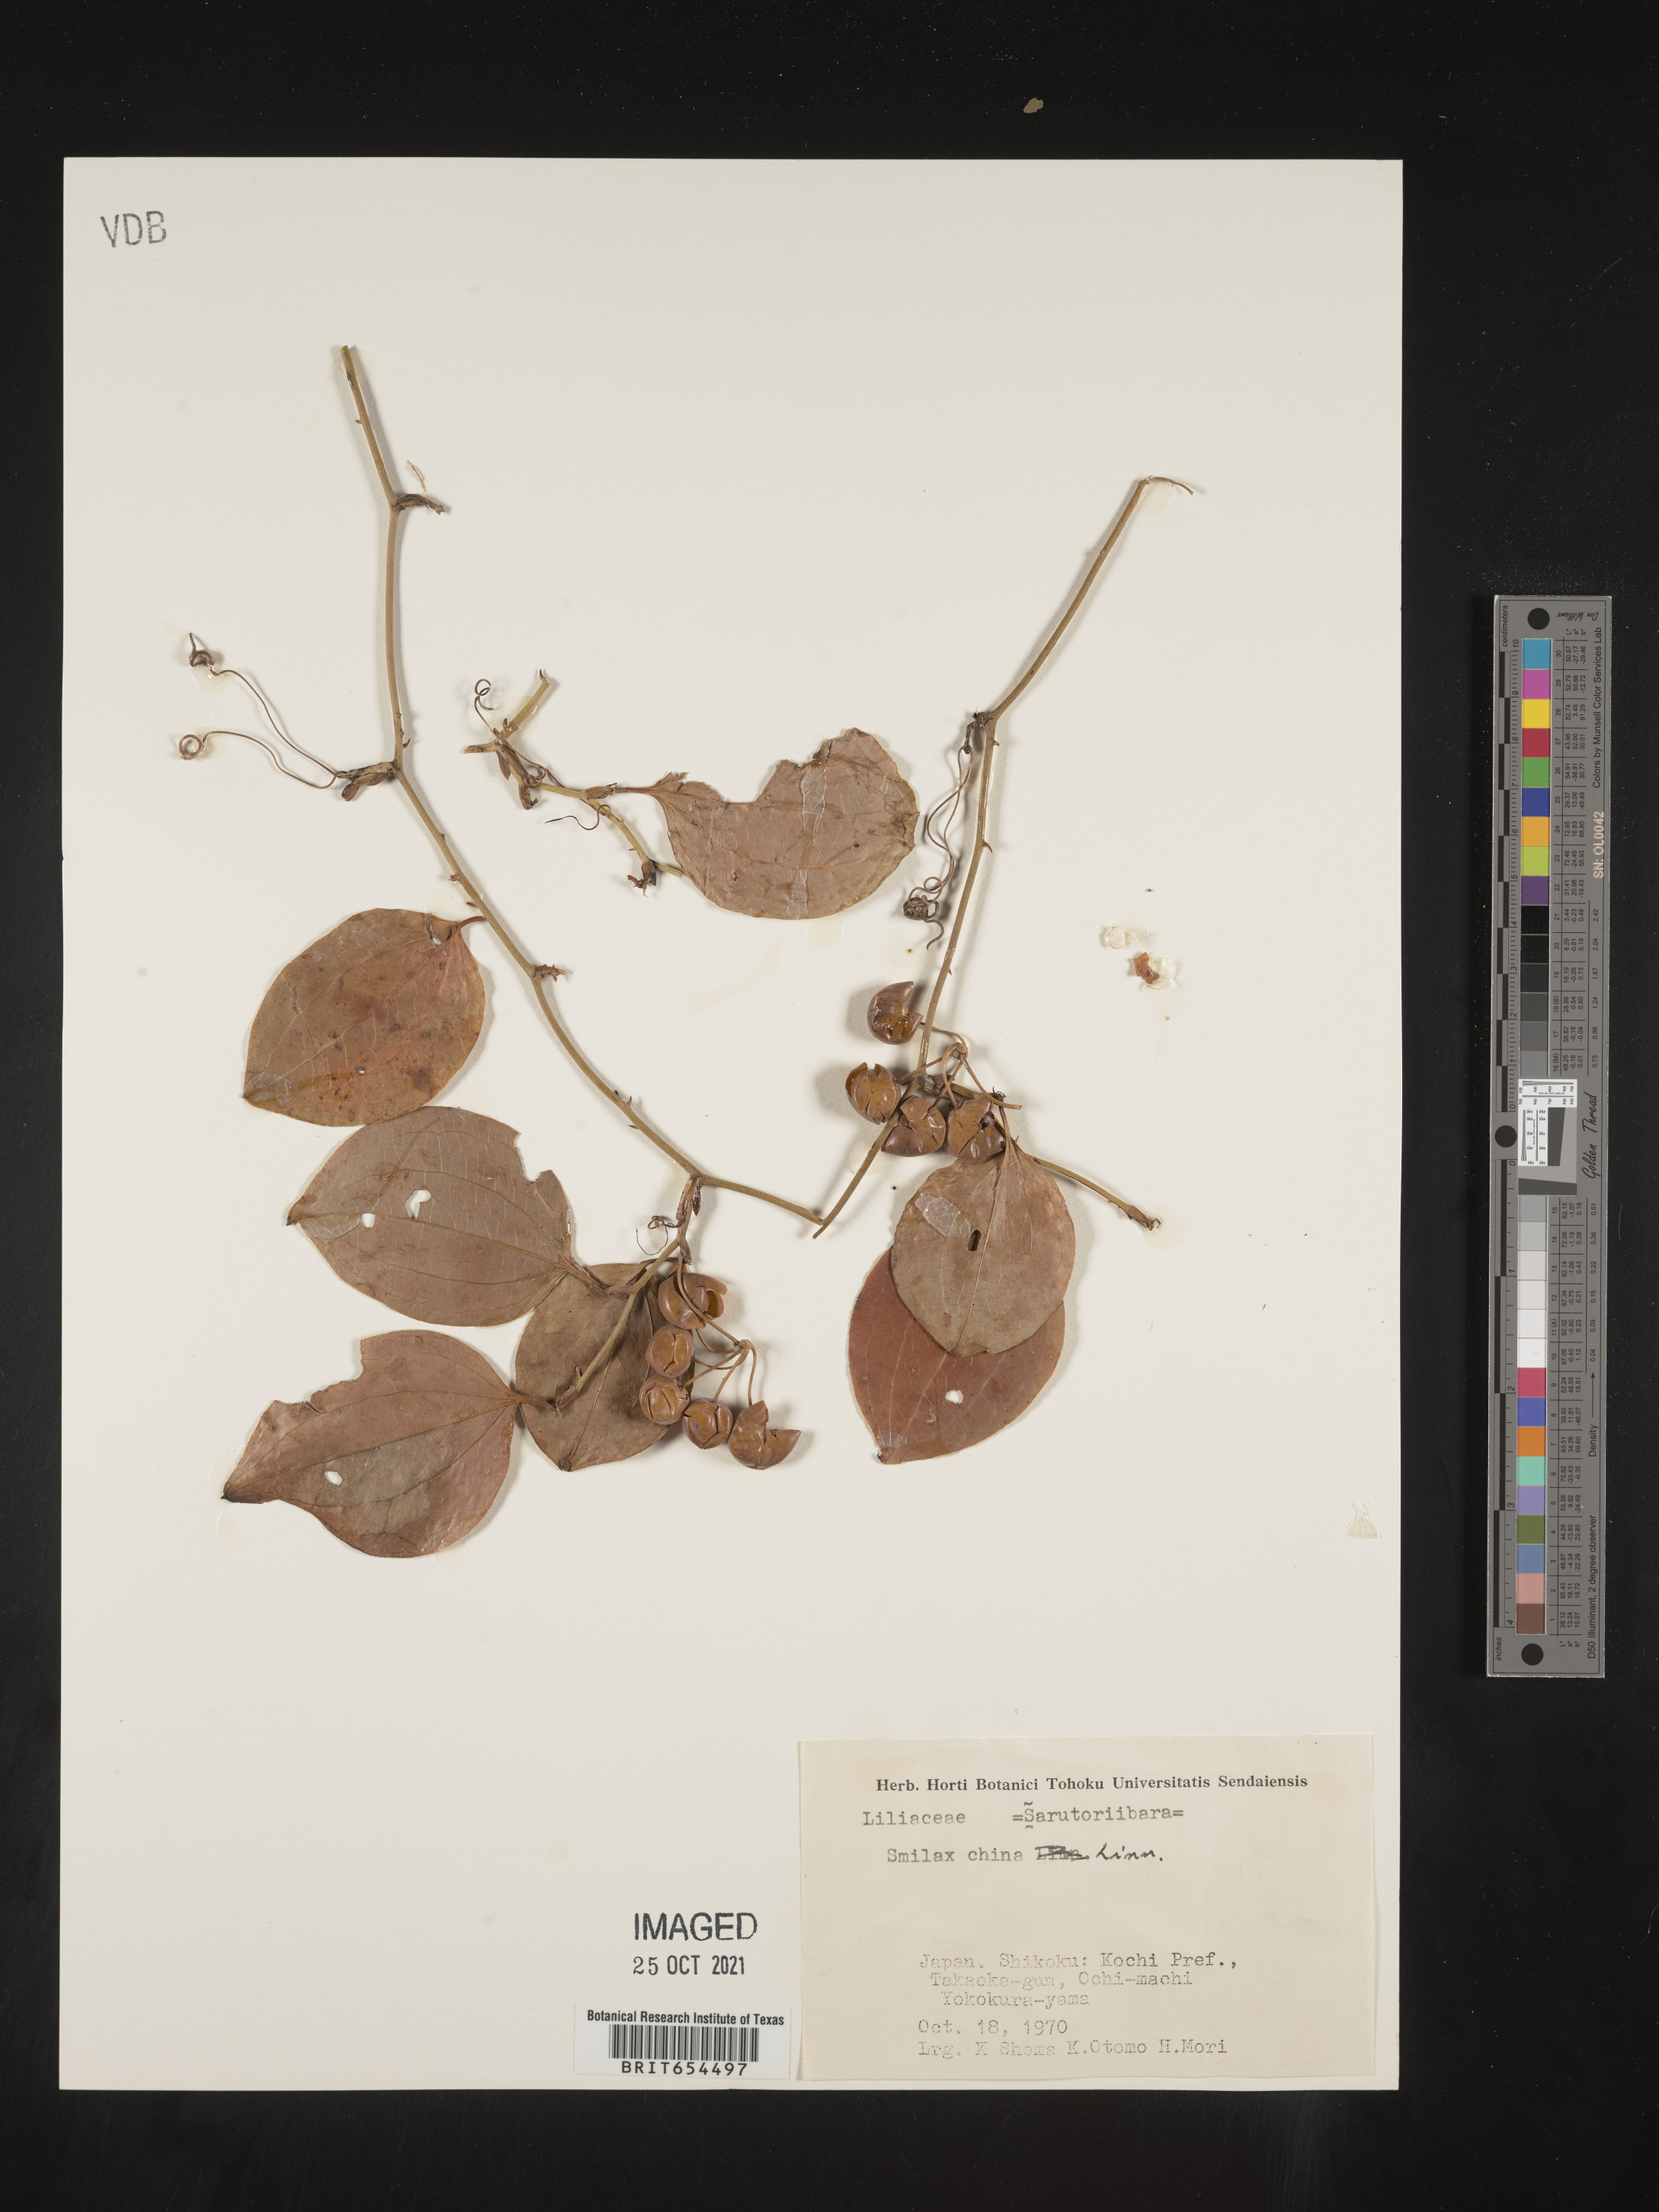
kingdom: Plantae
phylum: Tracheophyta
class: Liliopsida
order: Liliales
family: Smilacaceae
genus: Smilax
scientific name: Smilax
